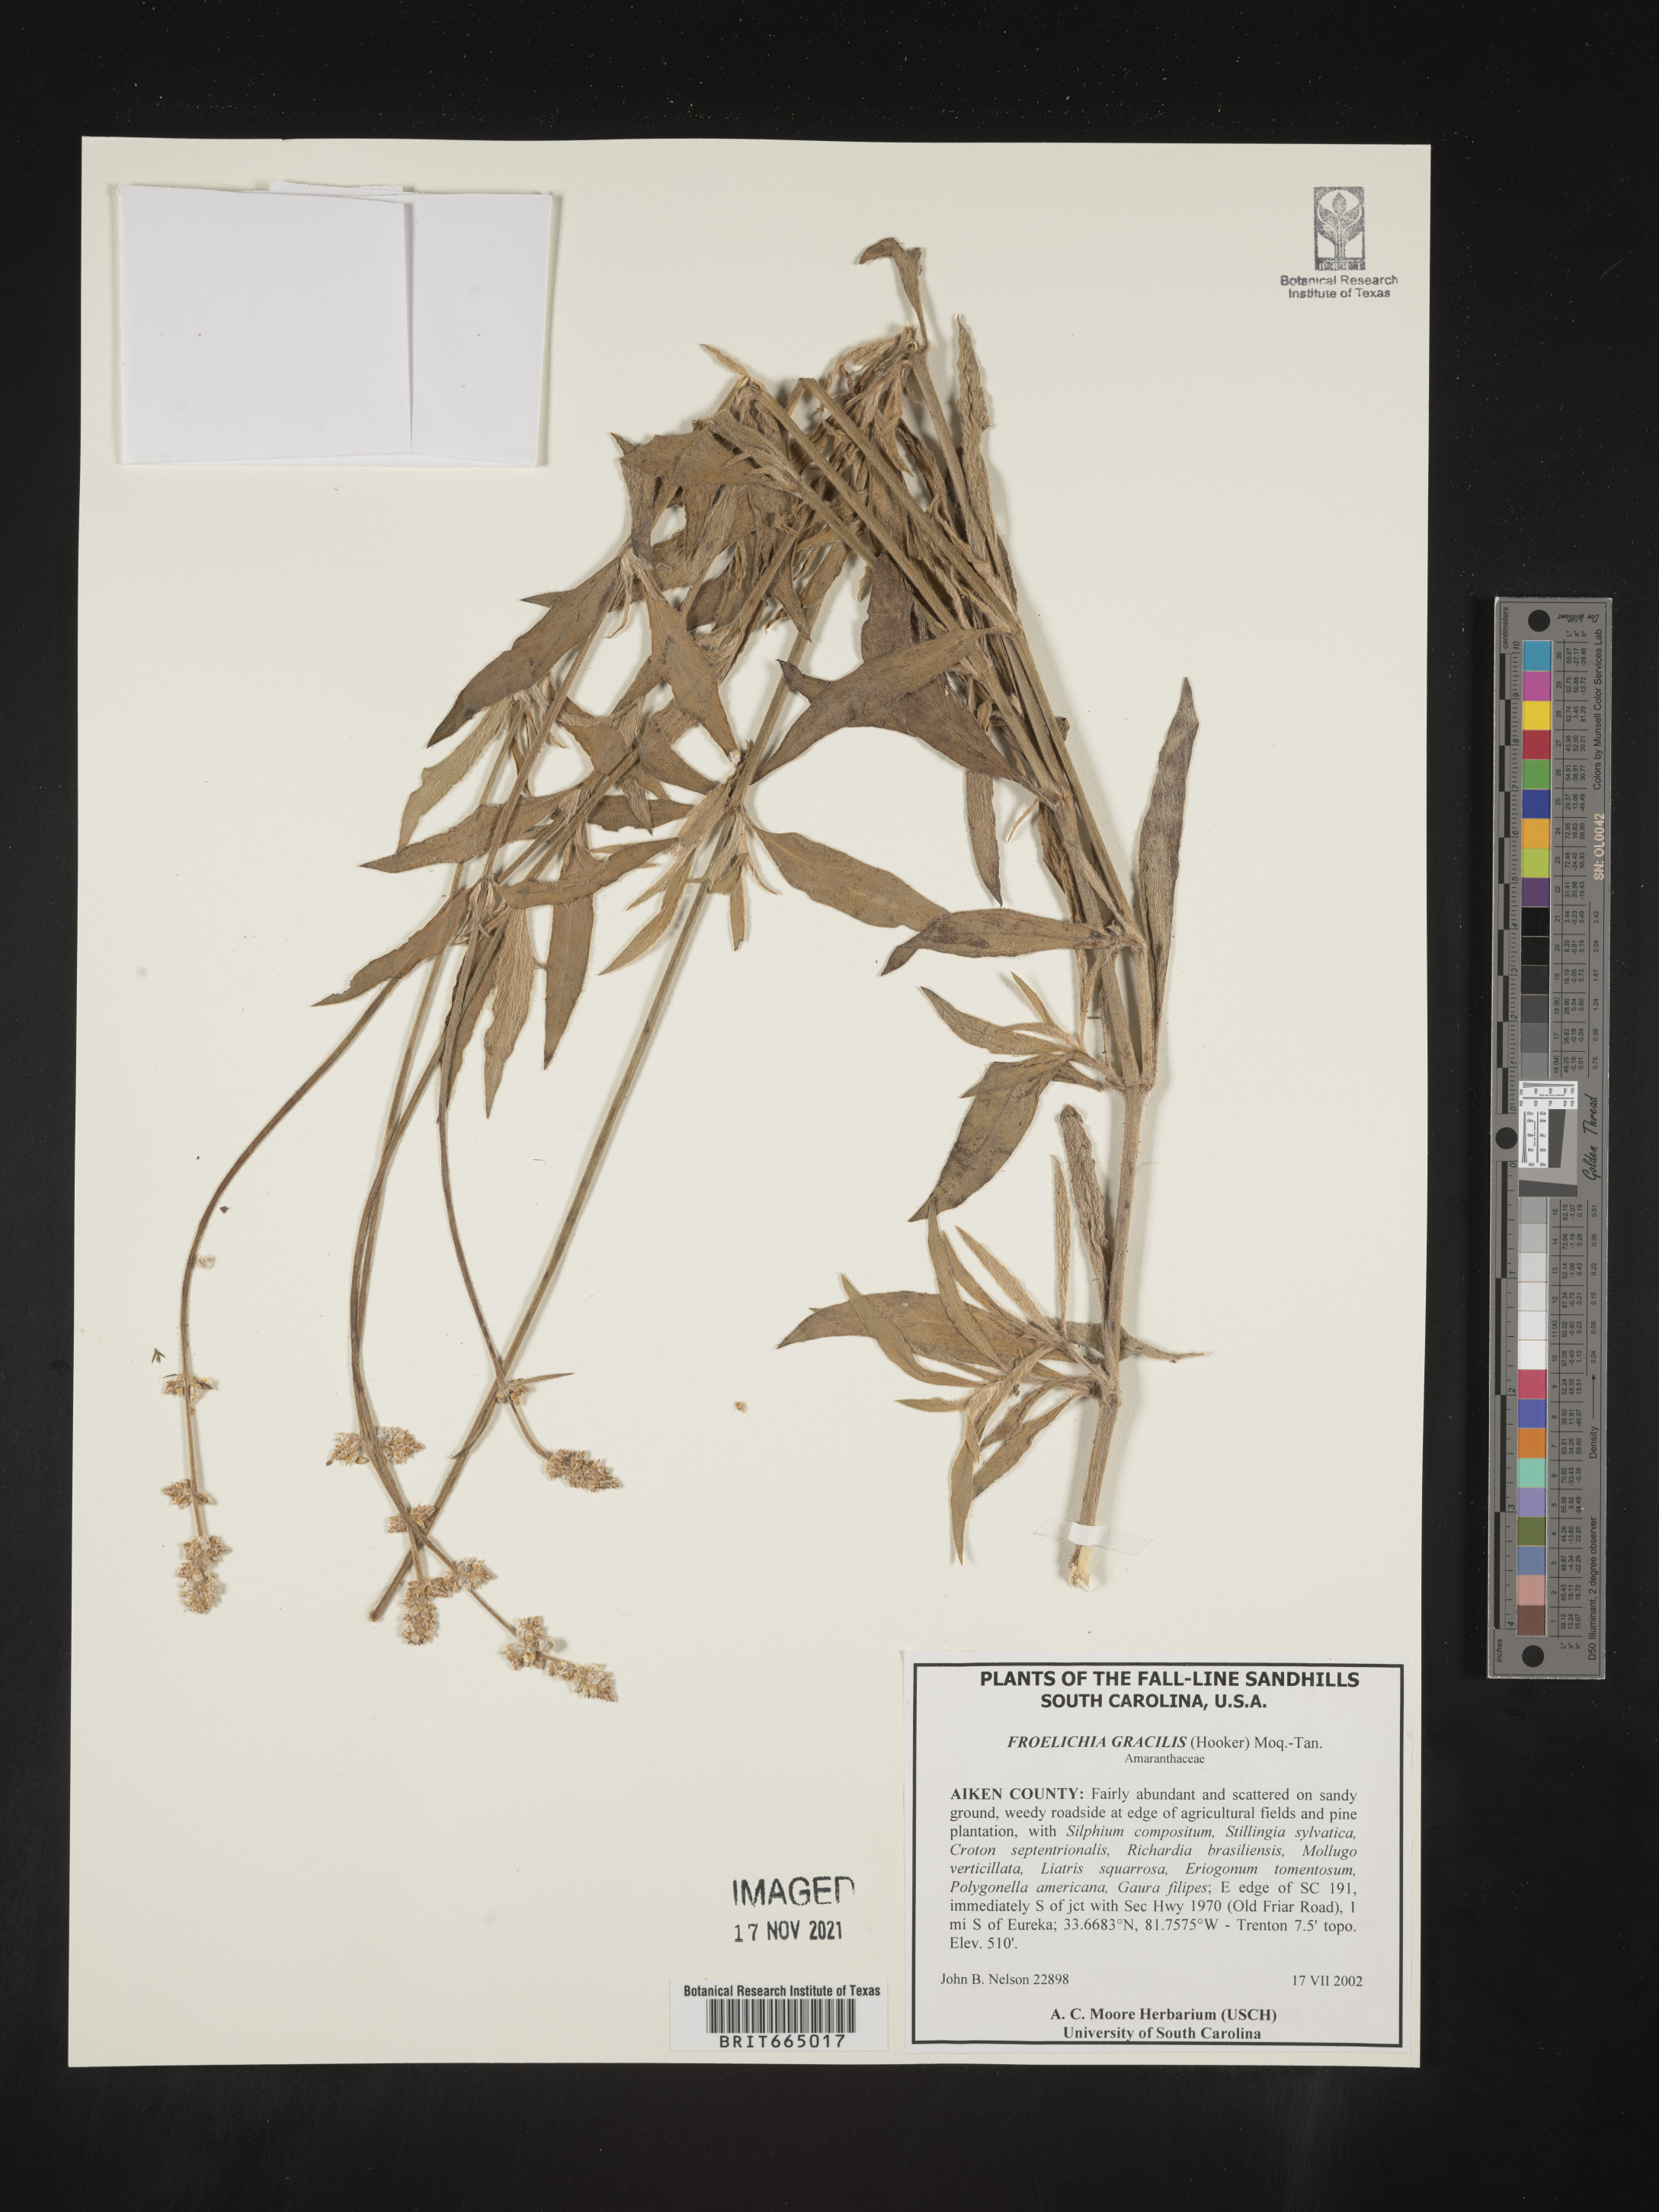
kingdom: Plantae
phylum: Tracheophyta
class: Magnoliopsida
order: Caryophyllales
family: Amaranthaceae
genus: Froelichia
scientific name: Froelichia gracilis
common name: Slender cottonweed
